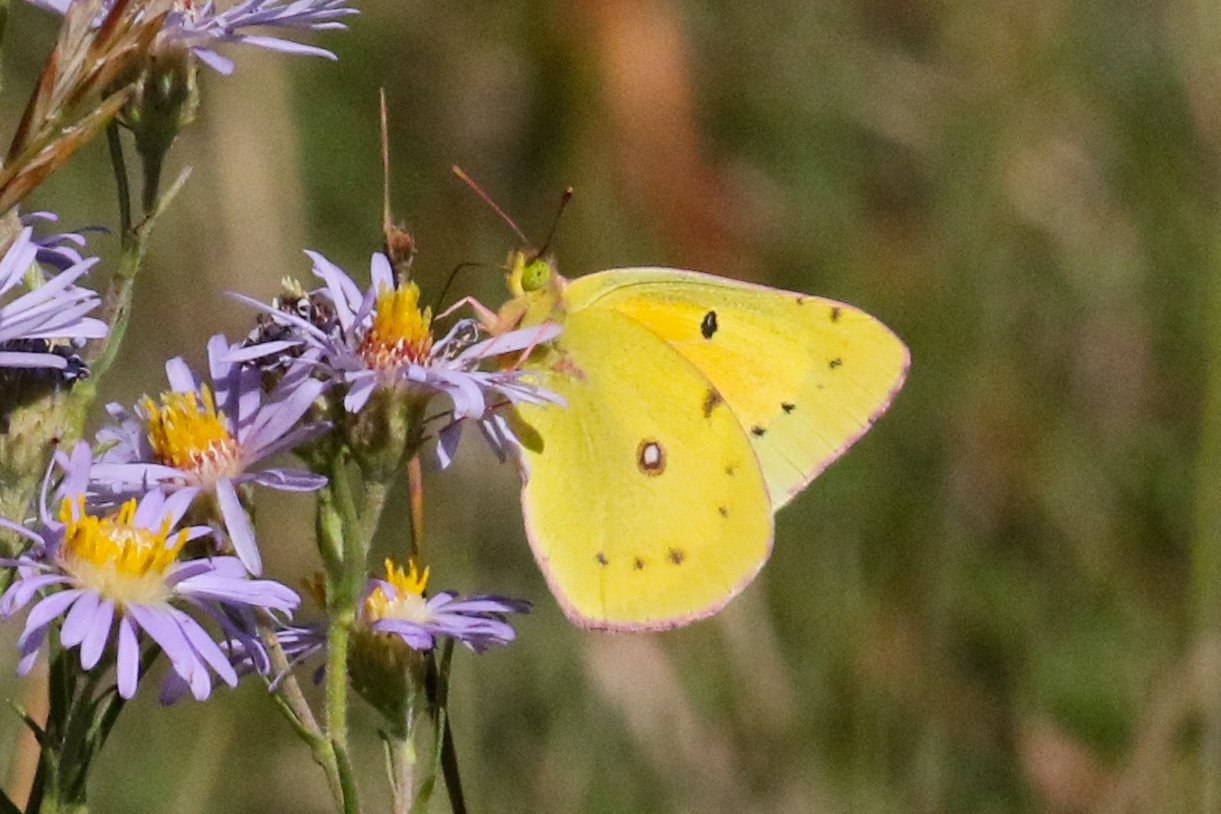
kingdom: Animalia
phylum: Arthropoda
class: Insecta
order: Lepidoptera
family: Pieridae
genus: Colias
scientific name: Colias eurytheme
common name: Orange Sulphur
